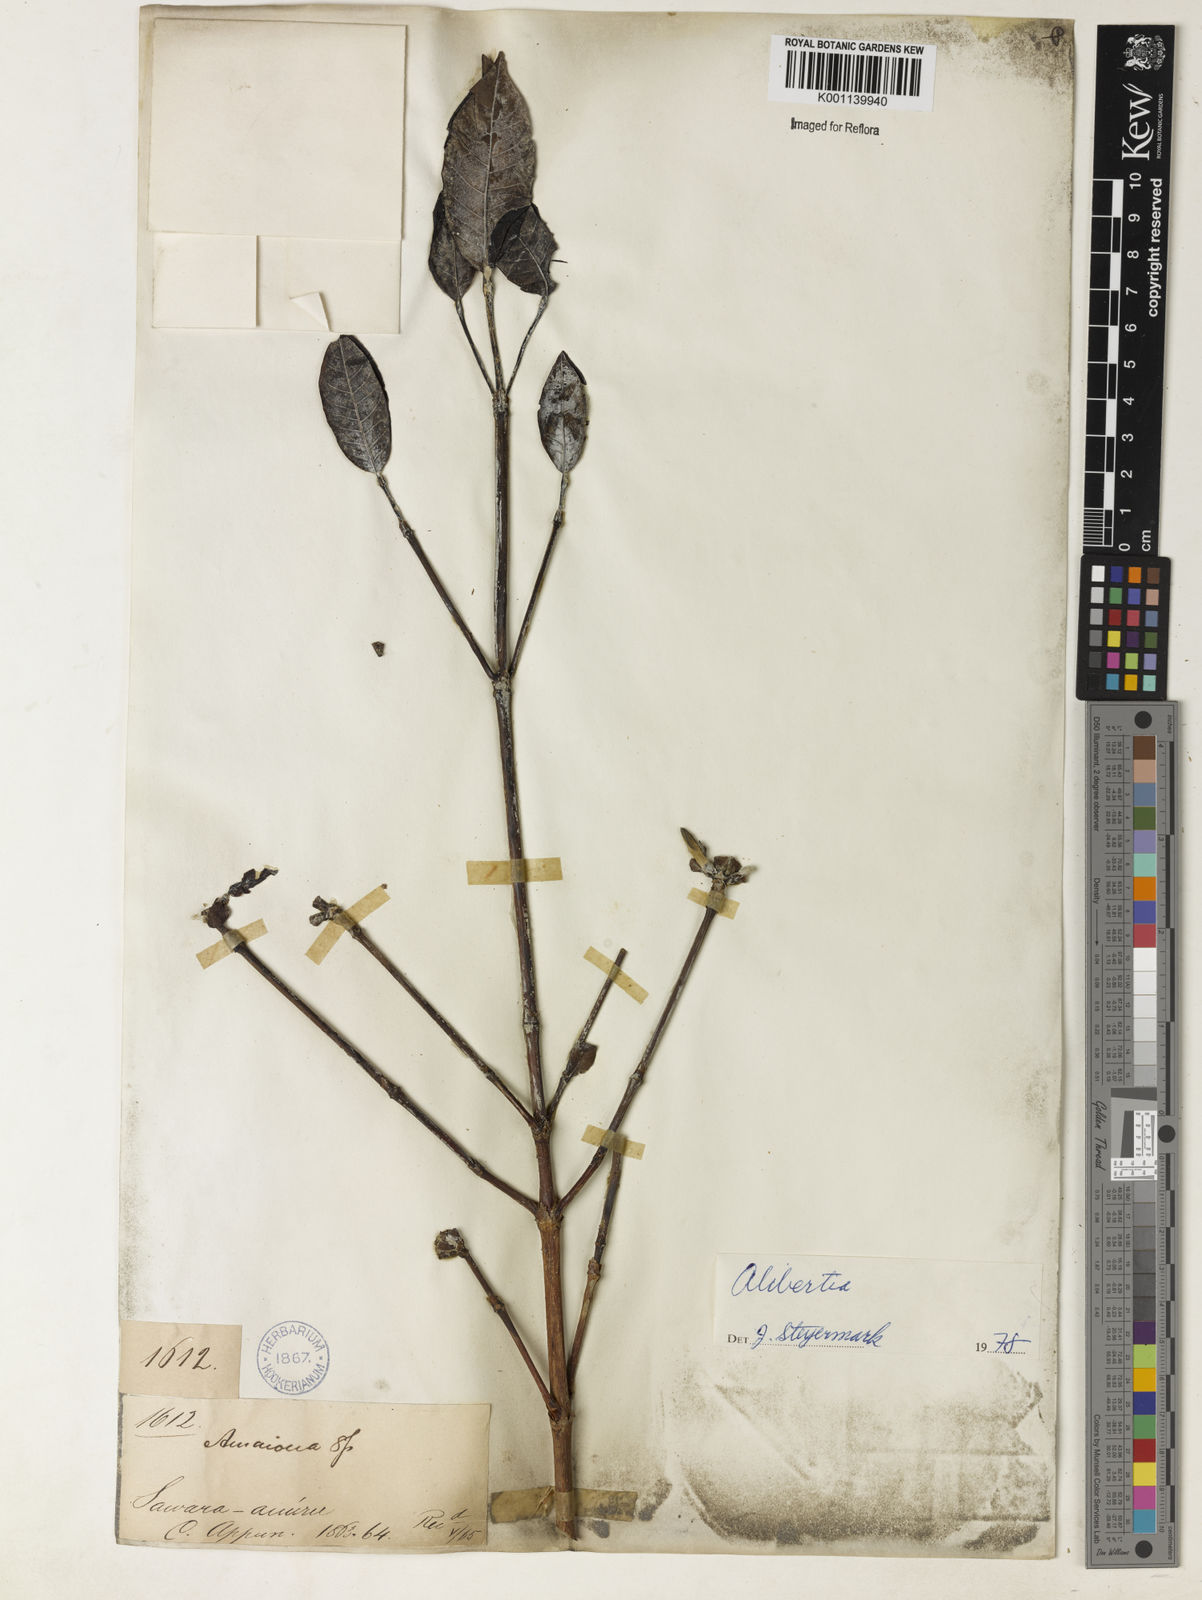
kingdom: Plantae
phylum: Tracheophyta
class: Magnoliopsida
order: Gentianales
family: Rubiaceae
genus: Alibertia
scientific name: Alibertia
